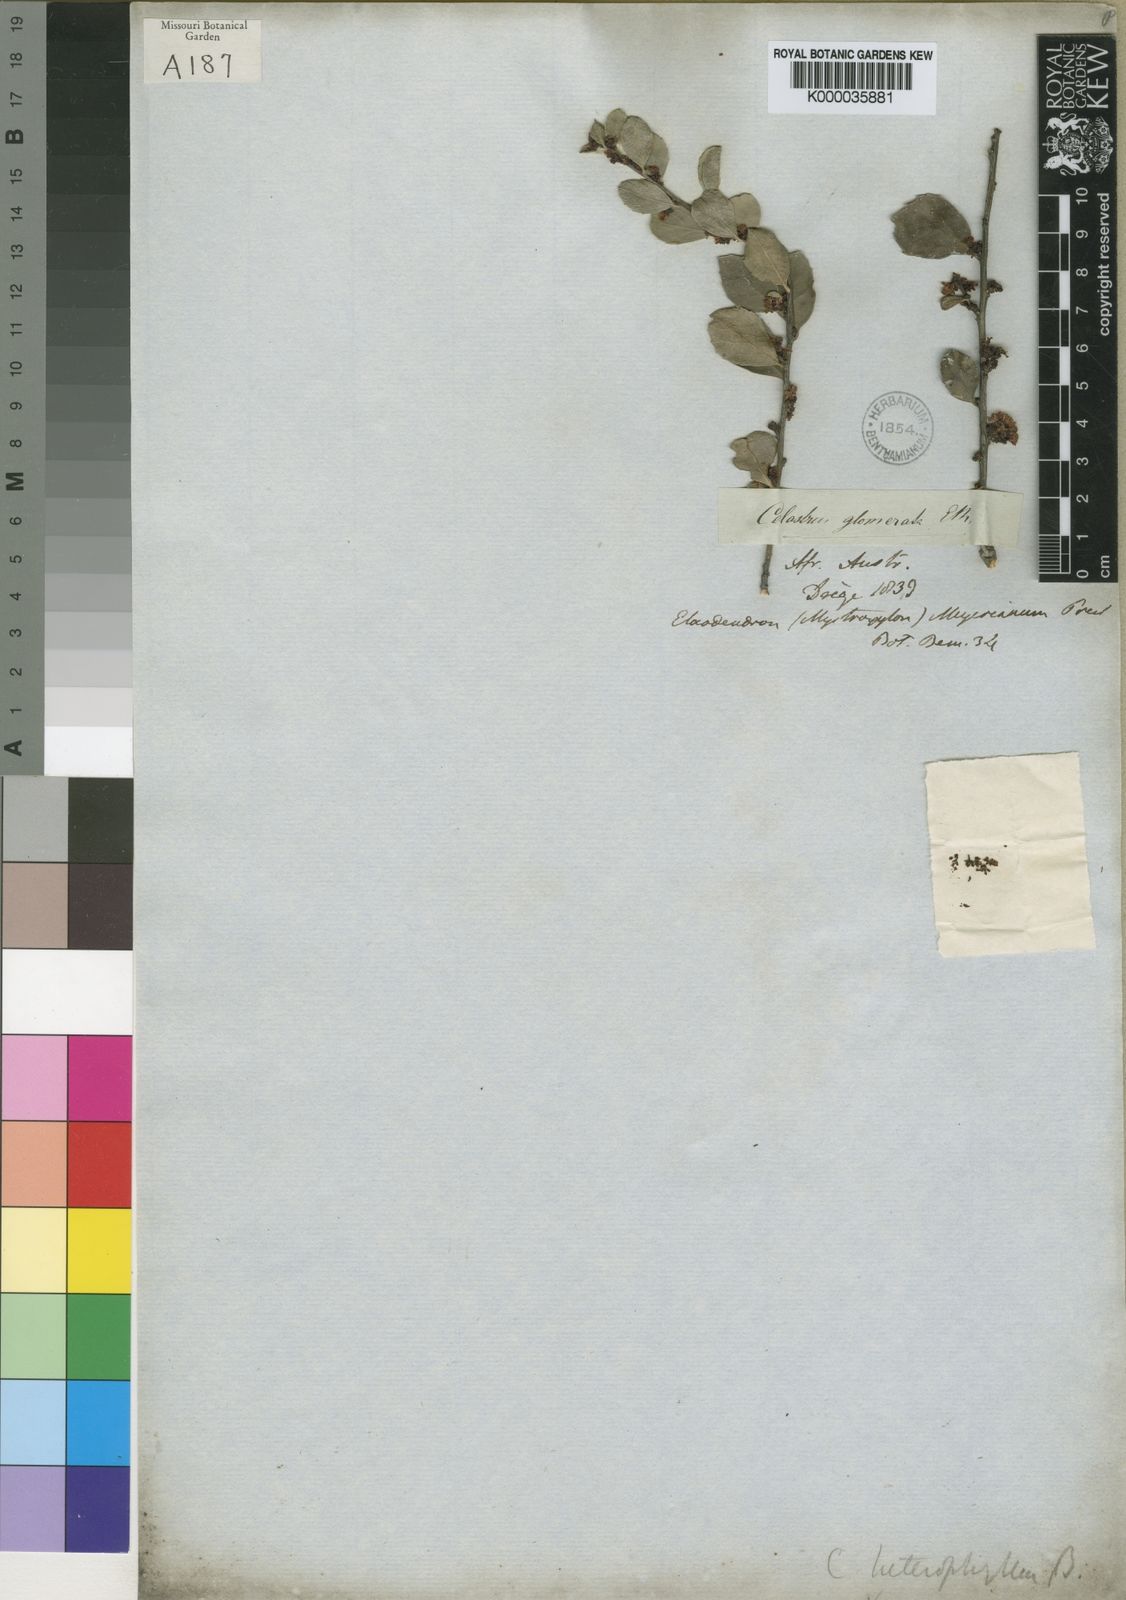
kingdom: Plantae
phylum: Tracheophyta
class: Magnoliopsida
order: Celastrales
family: Celastraceae
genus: Gymnosporia
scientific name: Gymnosporia heterophylla
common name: Angle-stem spikethorn
